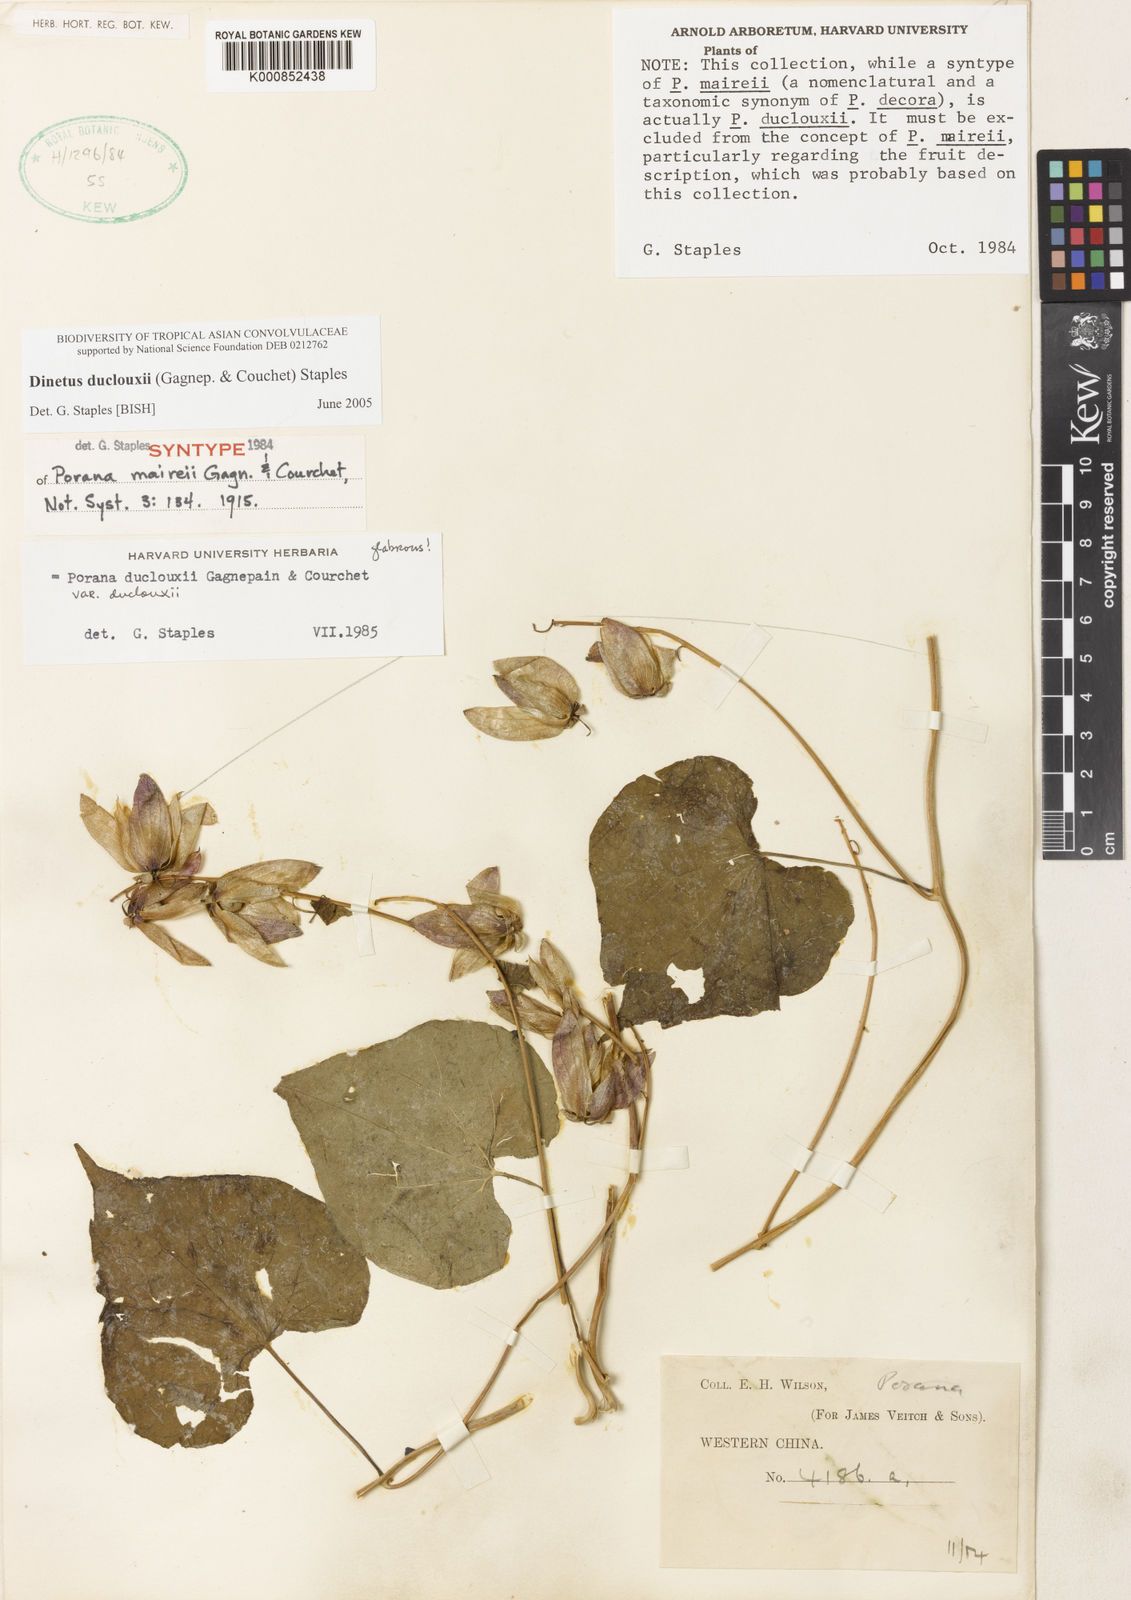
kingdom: Plantae
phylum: Tracheophyta
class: Magnoliopsida
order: Solanales
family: Convolvulaceae
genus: Dinetus
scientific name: Dinetus duclouxii
